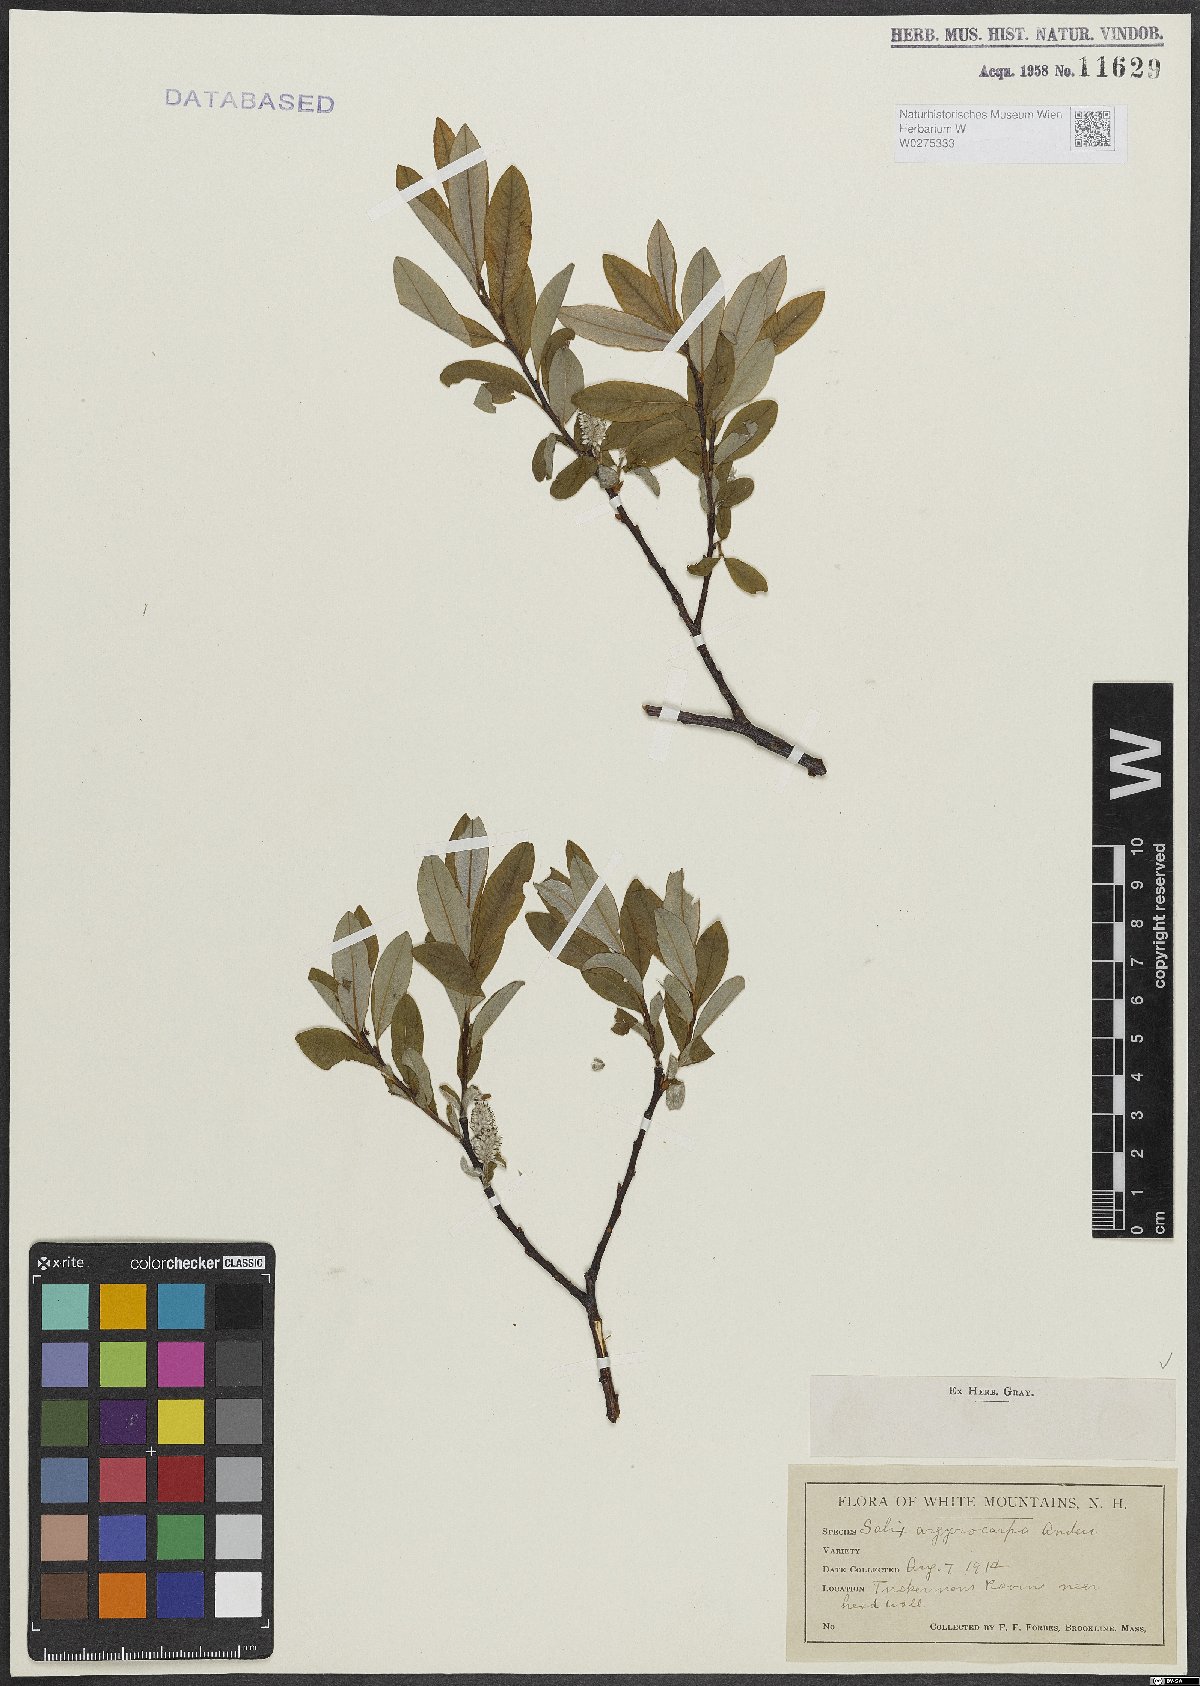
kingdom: Plantae
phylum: Tracheophyta
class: Magnoliopsida
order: Malpighiales
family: Salicaceae
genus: Salix
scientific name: Salix argyrocarpa
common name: Labrador willow
